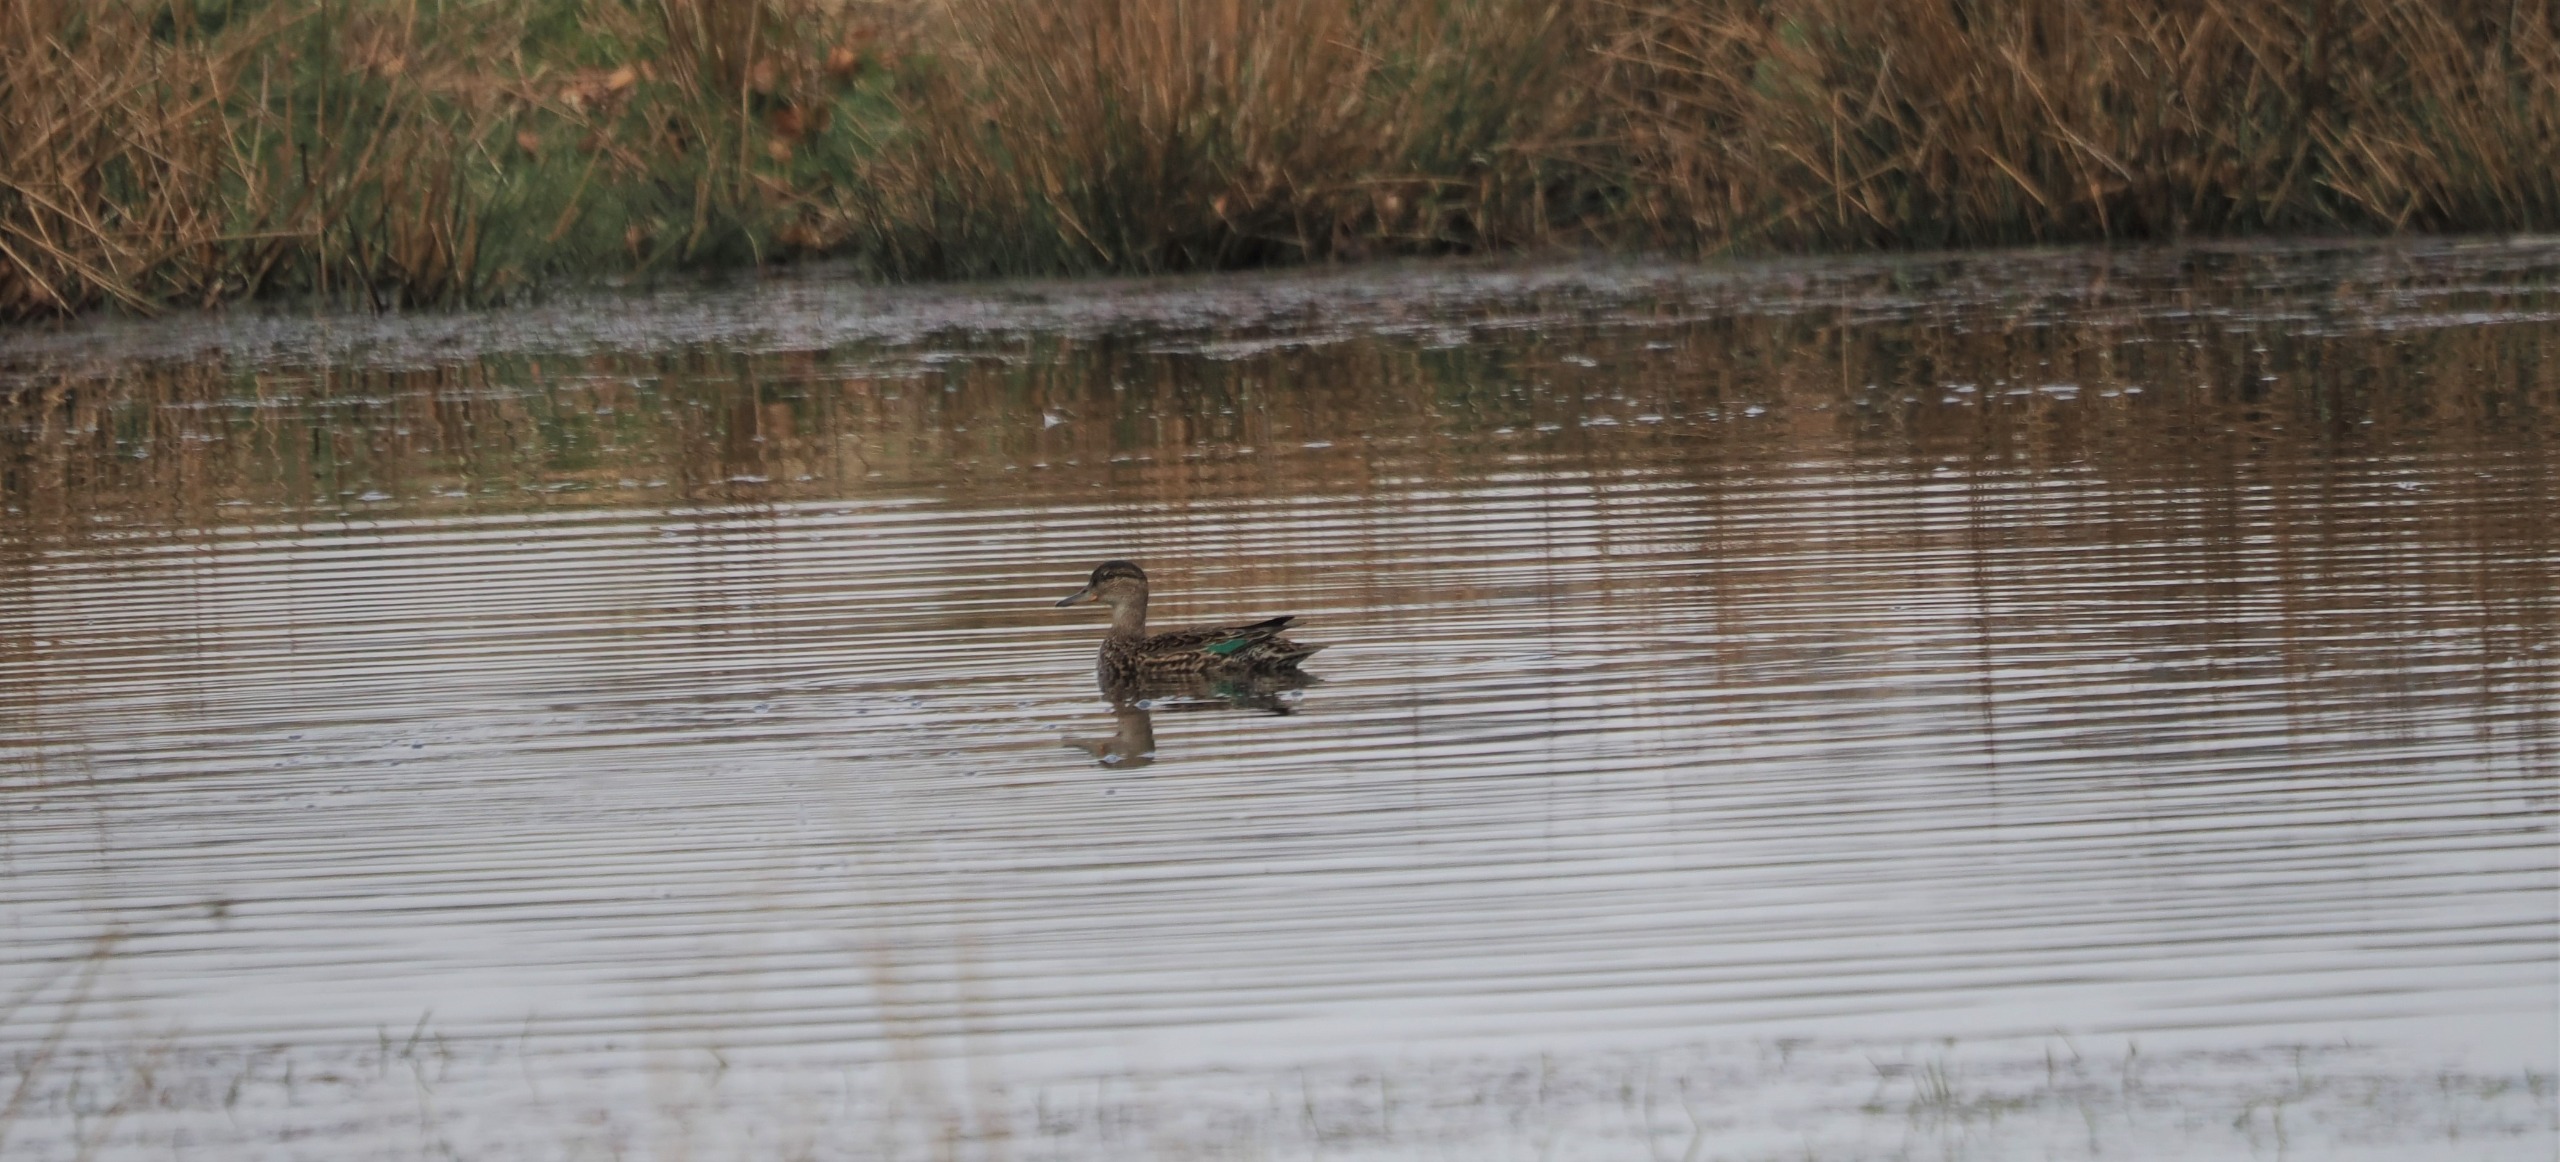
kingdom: Animalia
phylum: Chordata
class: Aves
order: Anseriformes
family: Anatidae
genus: Anas
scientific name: Anas crecca
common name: Krikand
